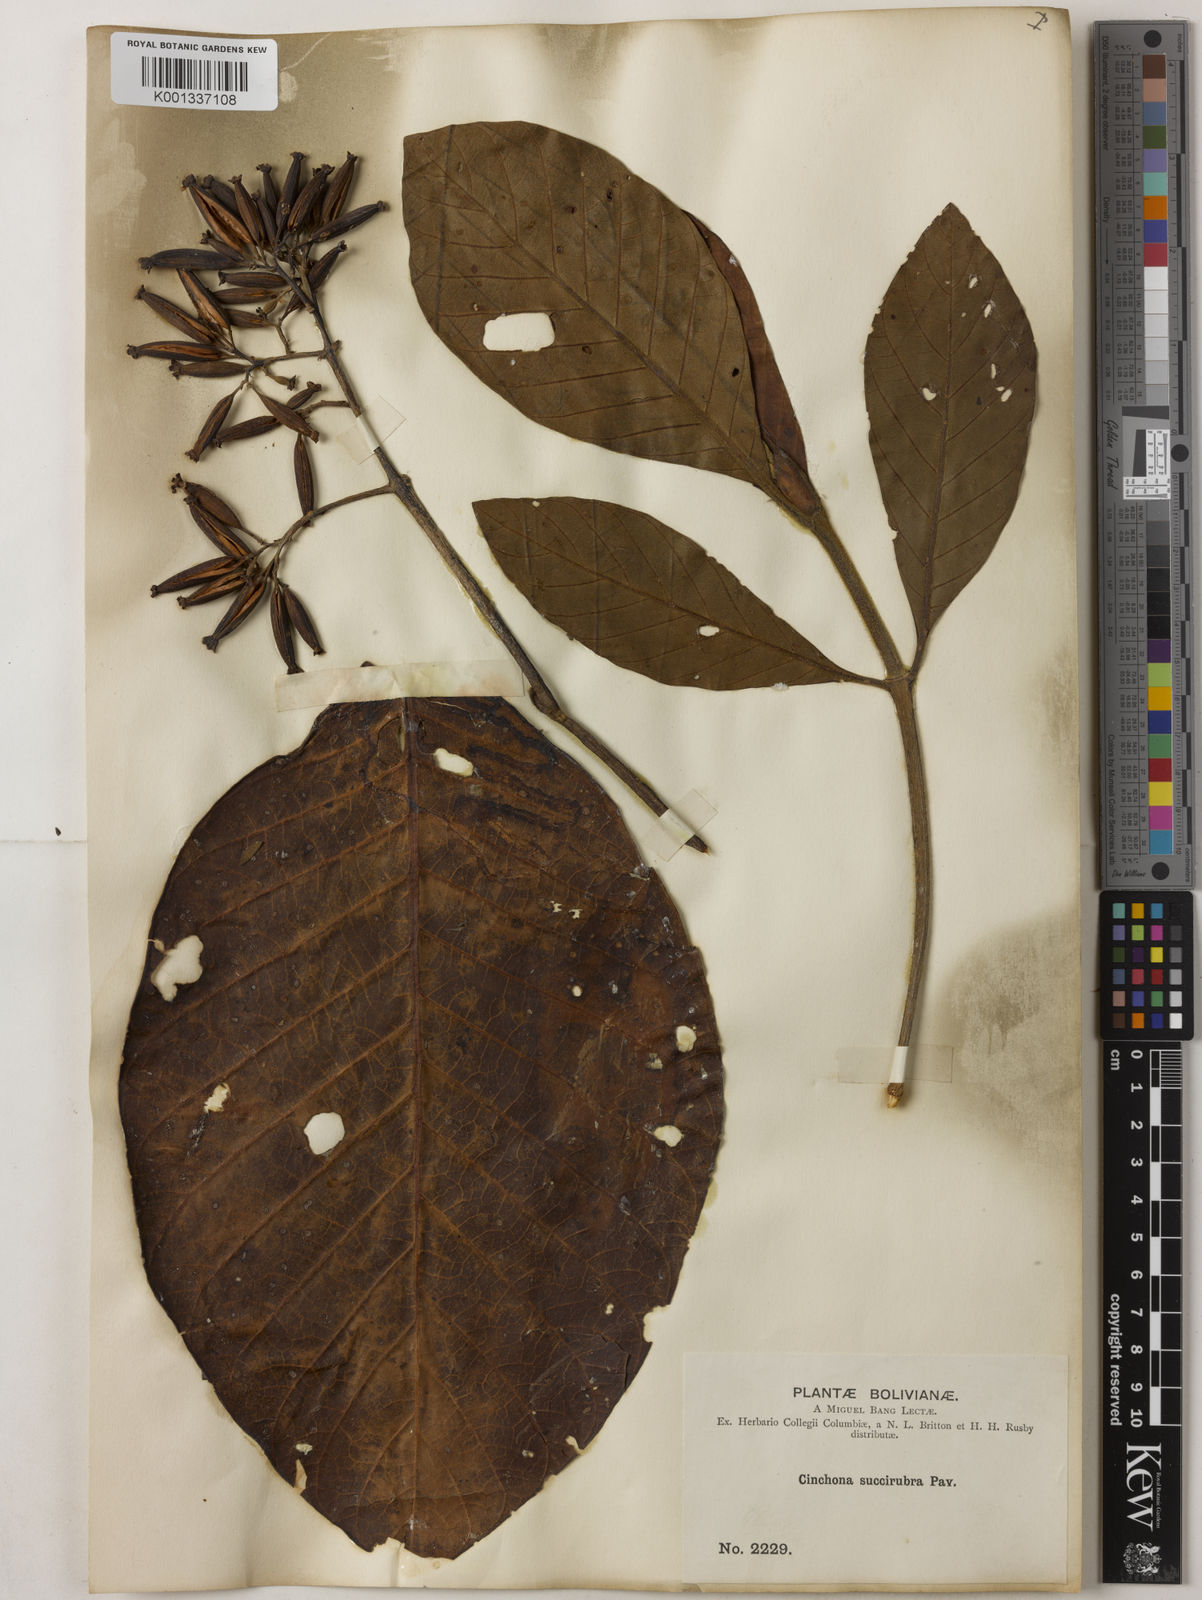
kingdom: Plantae
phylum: Tracheophyta
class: Magnoliopsida
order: Gentianales
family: Rubiaceae
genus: Cinchona
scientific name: Cinchona pubescens
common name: Quinine
